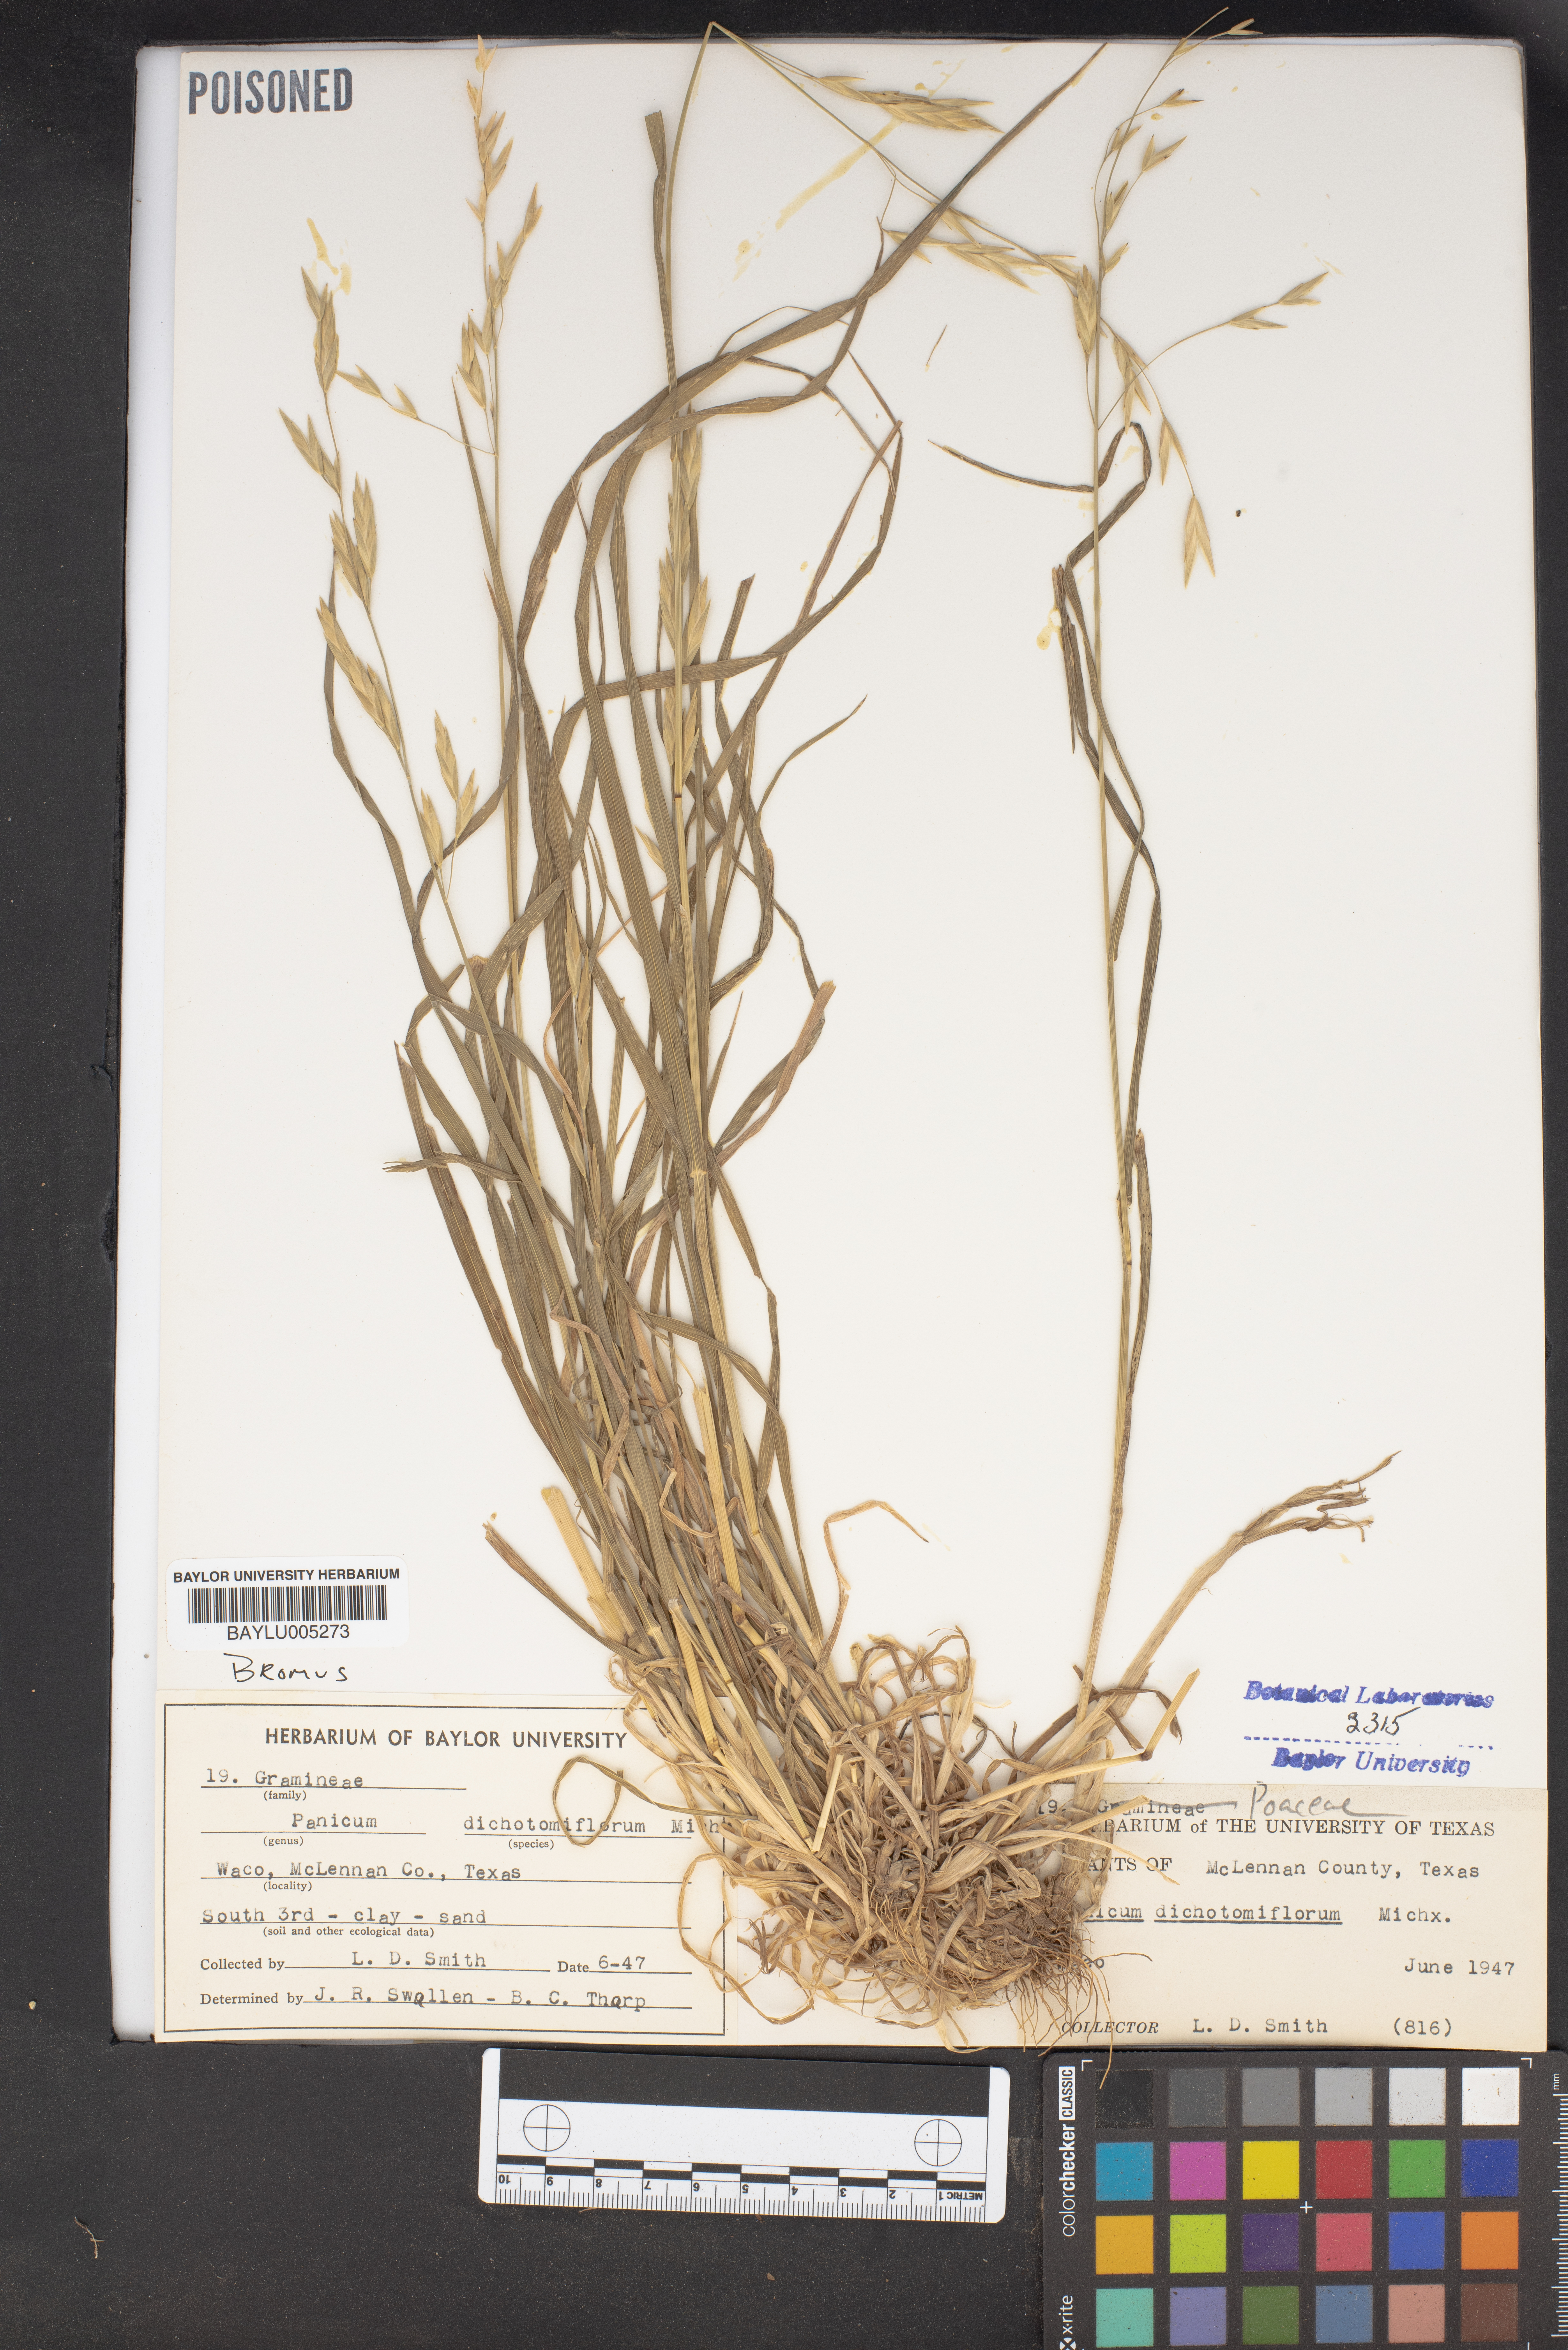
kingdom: Plantae
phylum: Tracheophyta
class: Liliopsida
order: Poales
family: Poaceae
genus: Panicum
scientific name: Panicum dichotomiflorum
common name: Autumn millet
